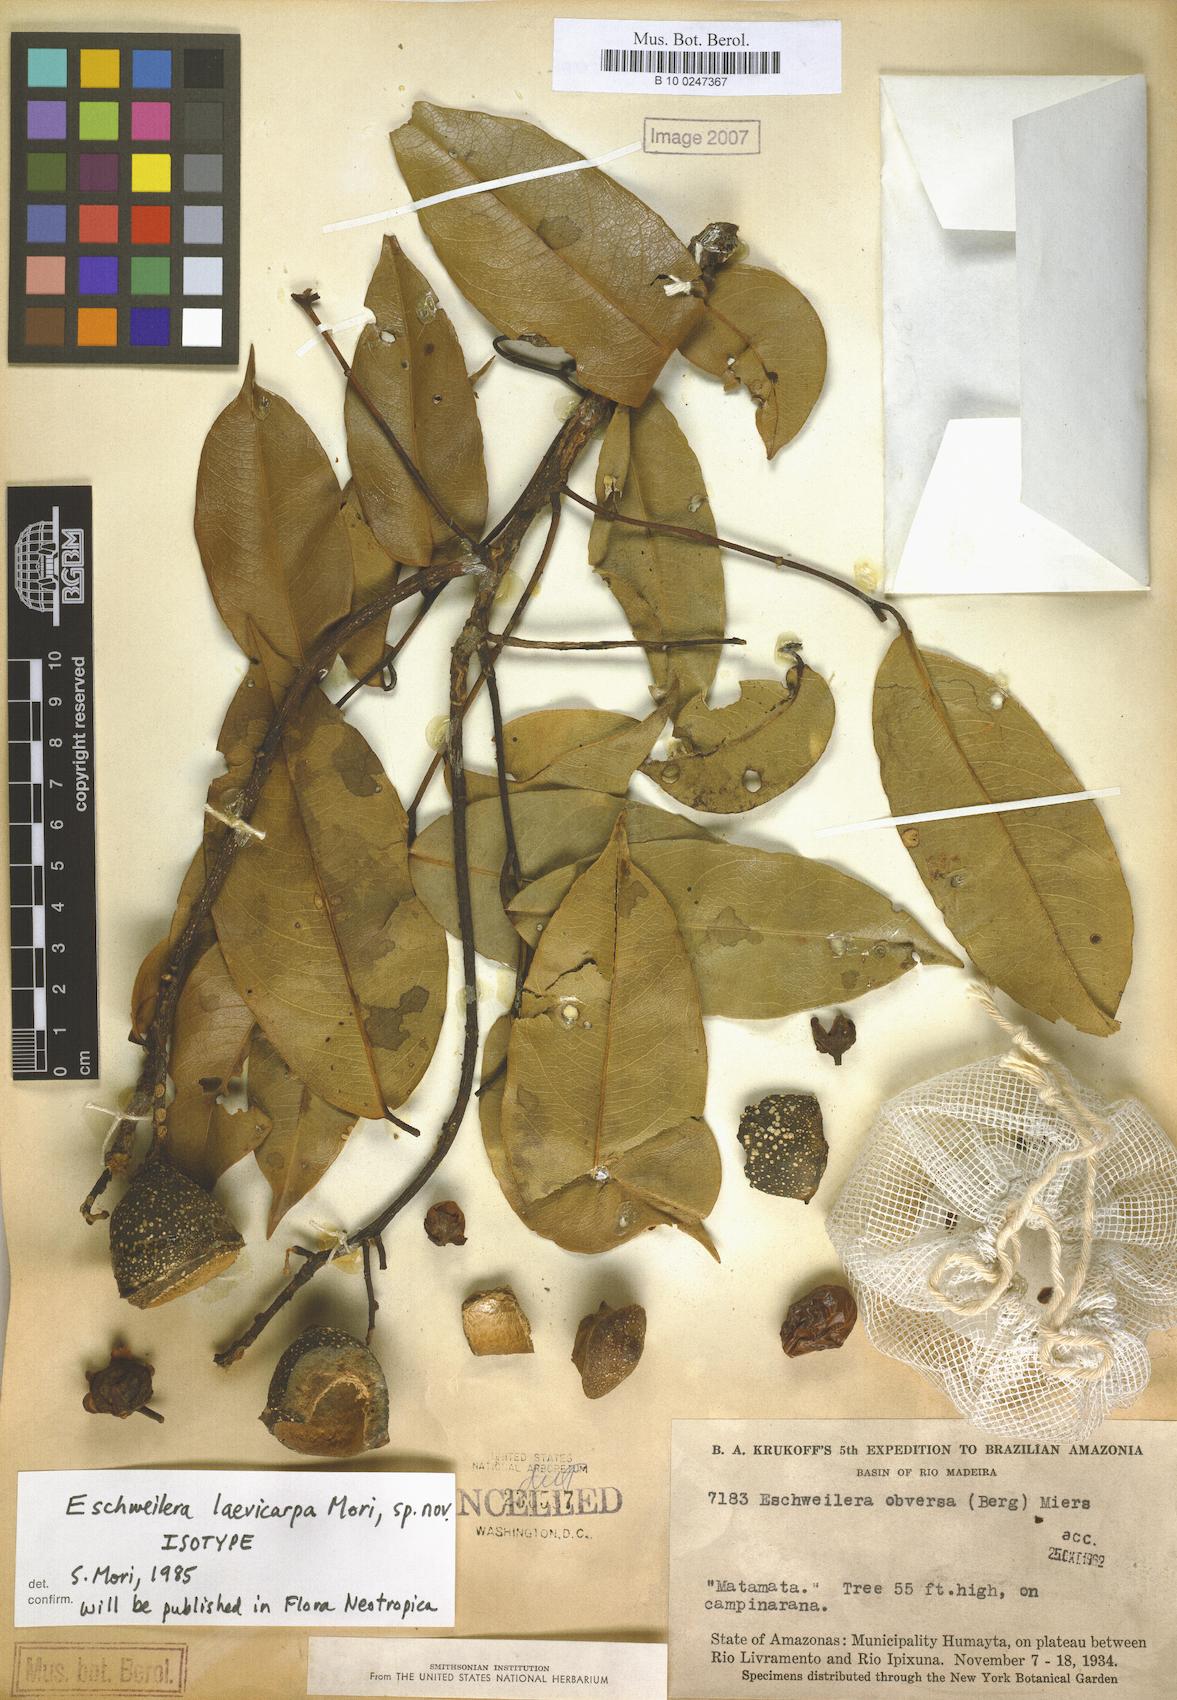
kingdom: Plantae
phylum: Tracheophyta
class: Magnoliopsida
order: Ericales
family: Lecythidaceae
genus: Eschweilera
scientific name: Eschweilera laevicarpa
